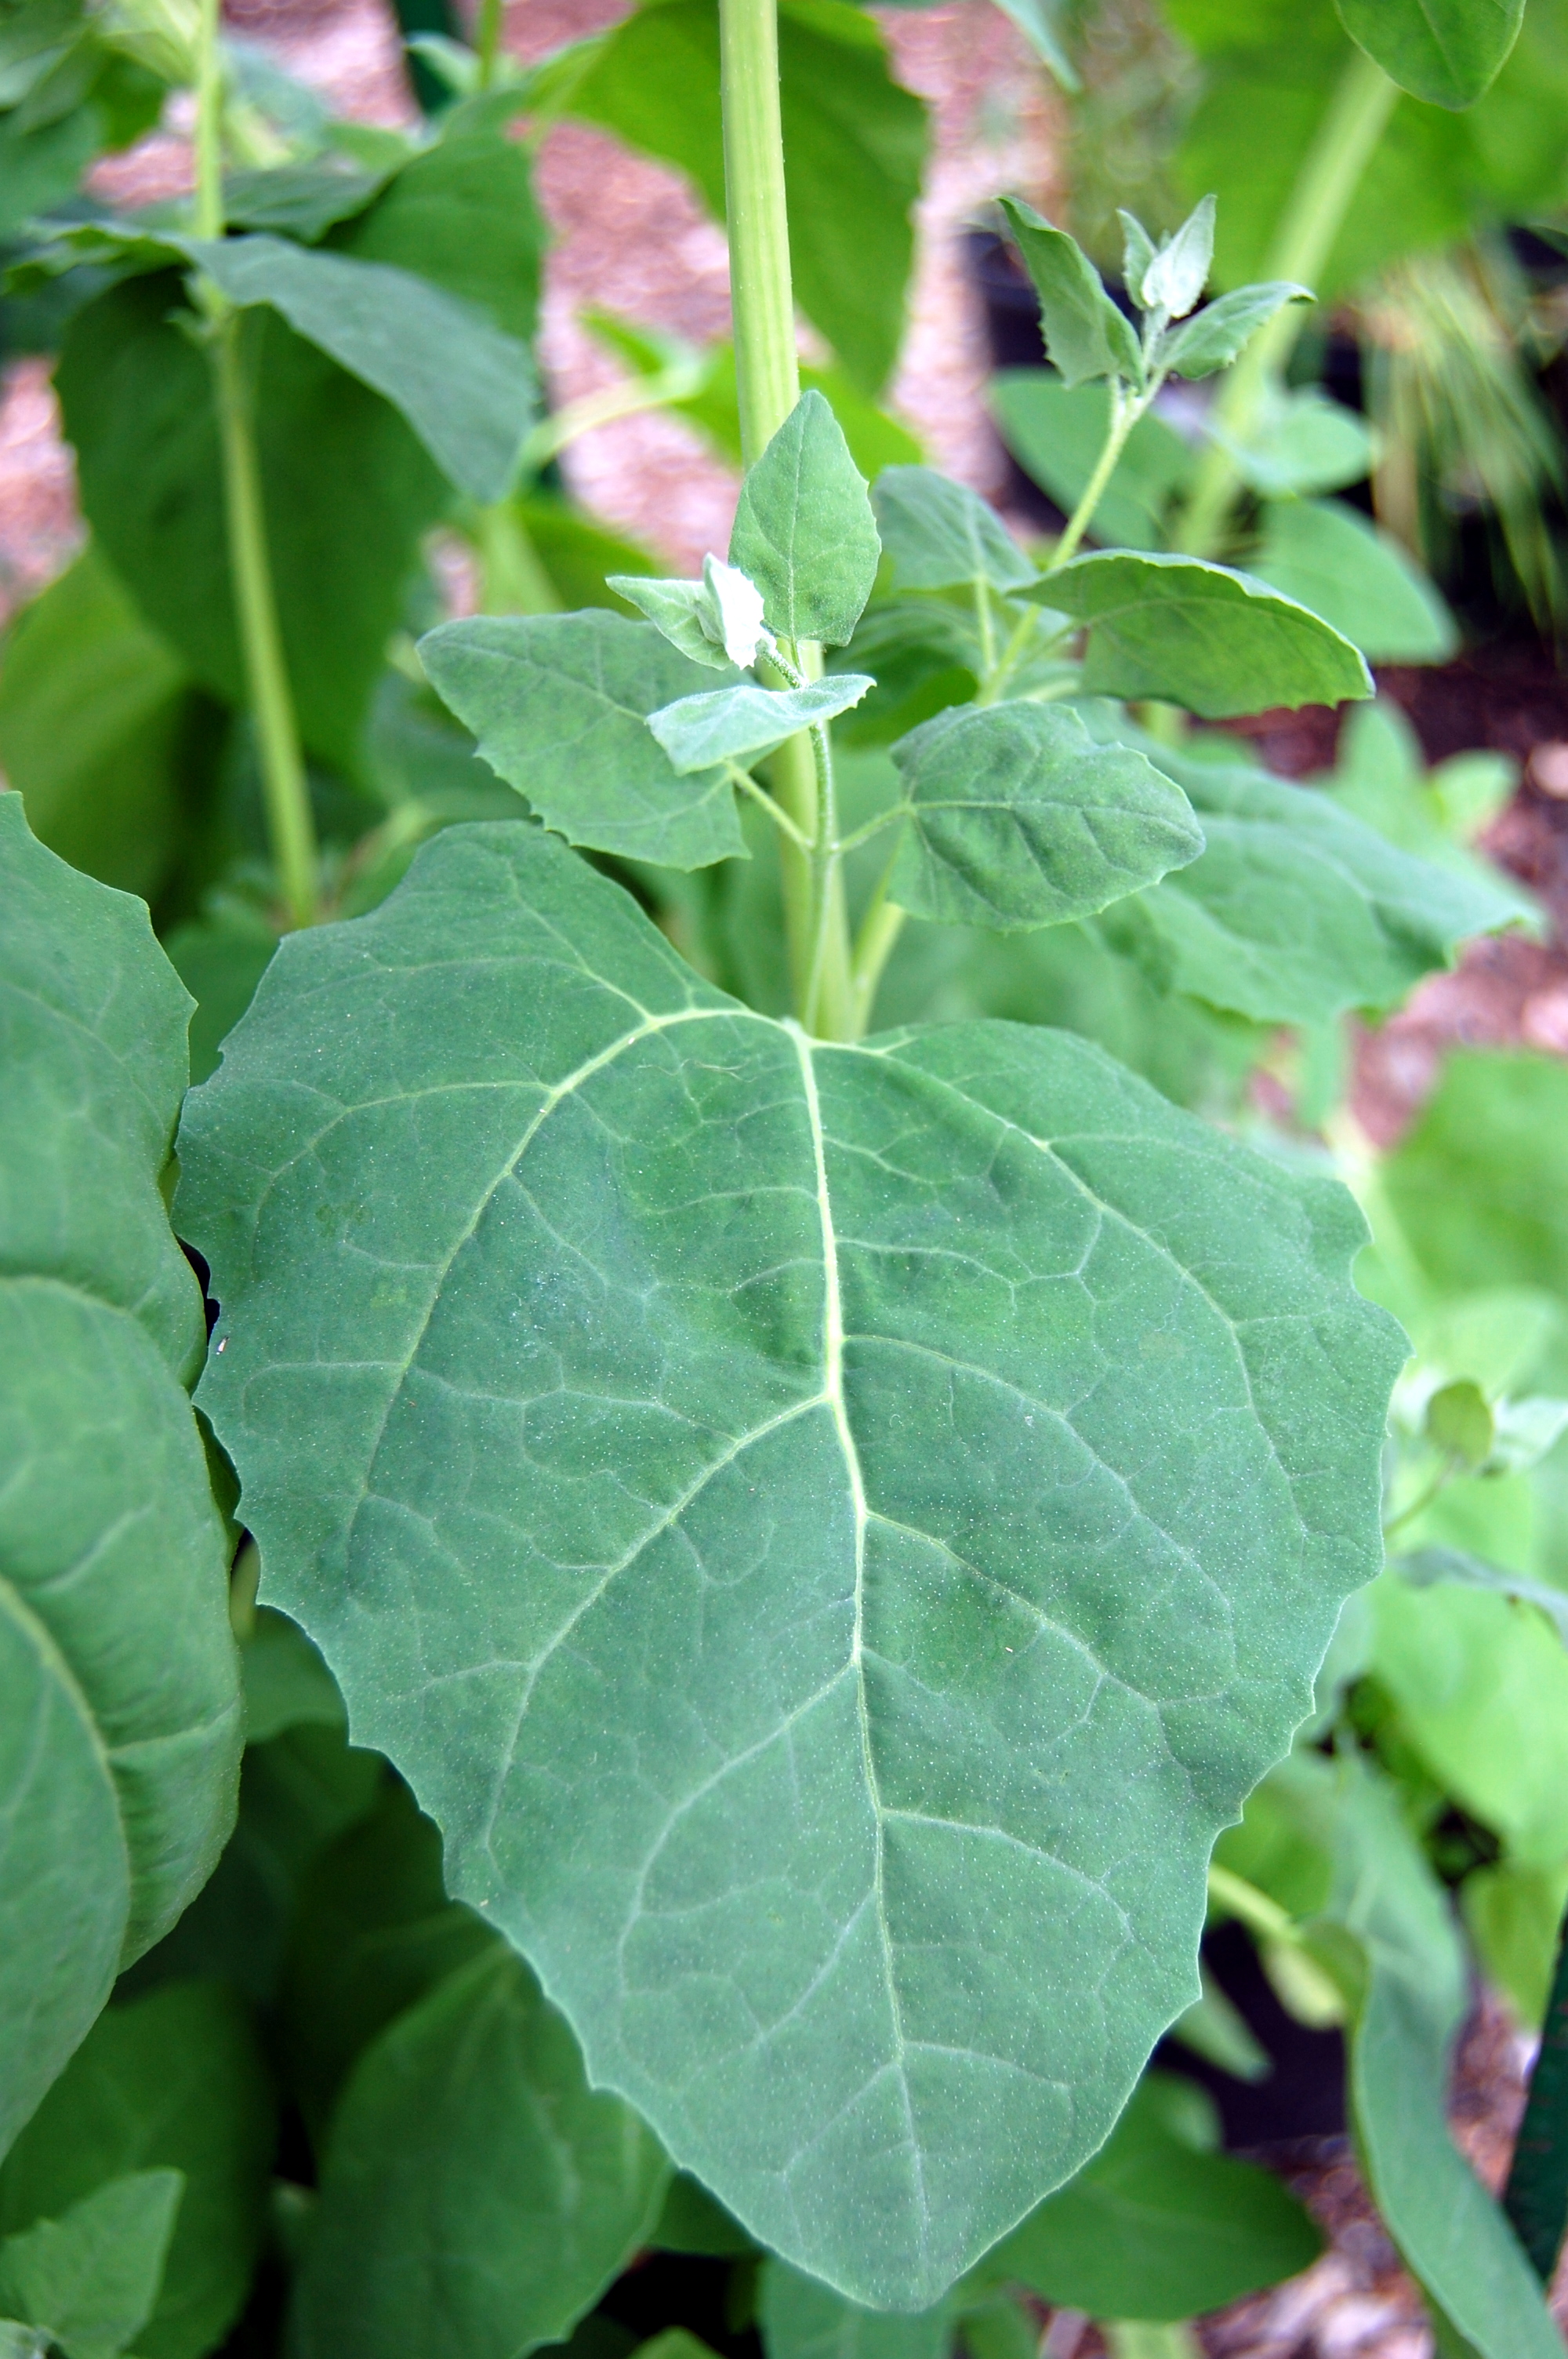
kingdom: Plantae
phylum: Tracheophyta
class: Magnoliopsida
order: Caryophyllales
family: Amaranthaceae
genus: Atriplex
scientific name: Atriplex hortensis
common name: Garden orache
